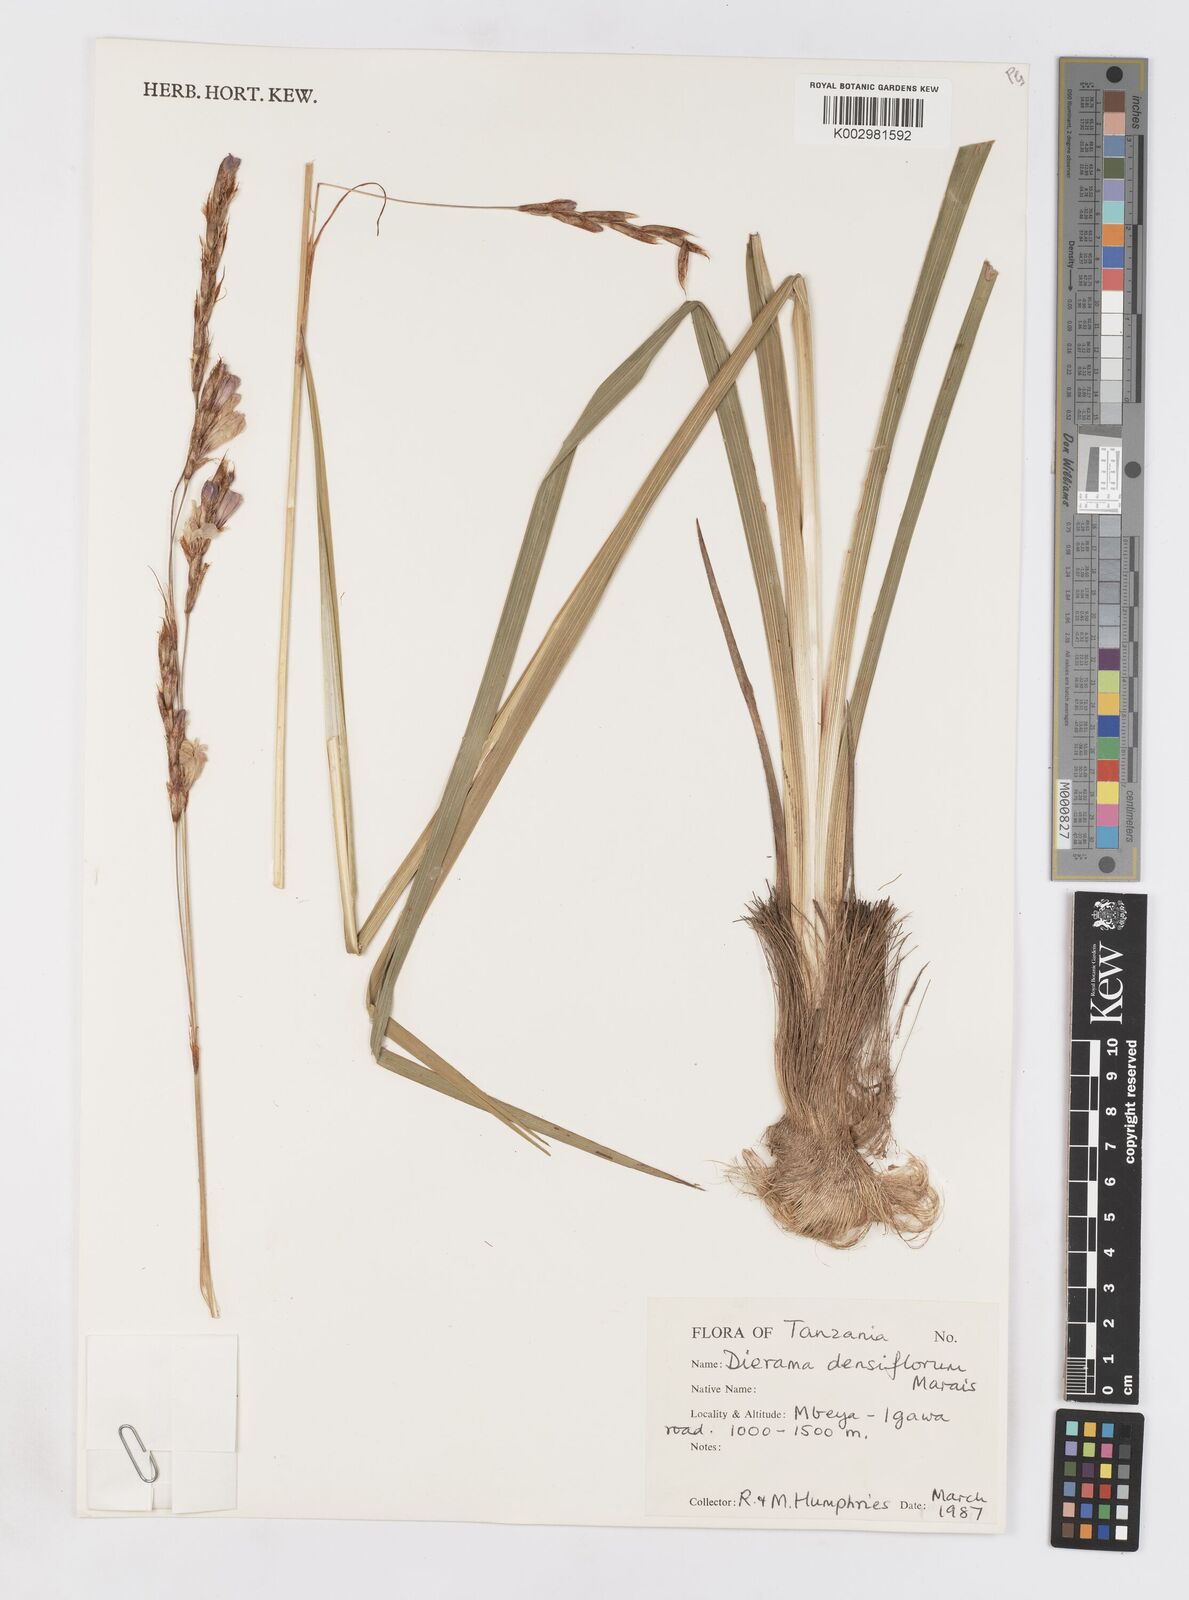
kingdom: Plantae
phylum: Tracheophyta
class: Liliopsida
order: Asparagales
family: Iridaceae
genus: Dierama
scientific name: Dierama densiflorum
